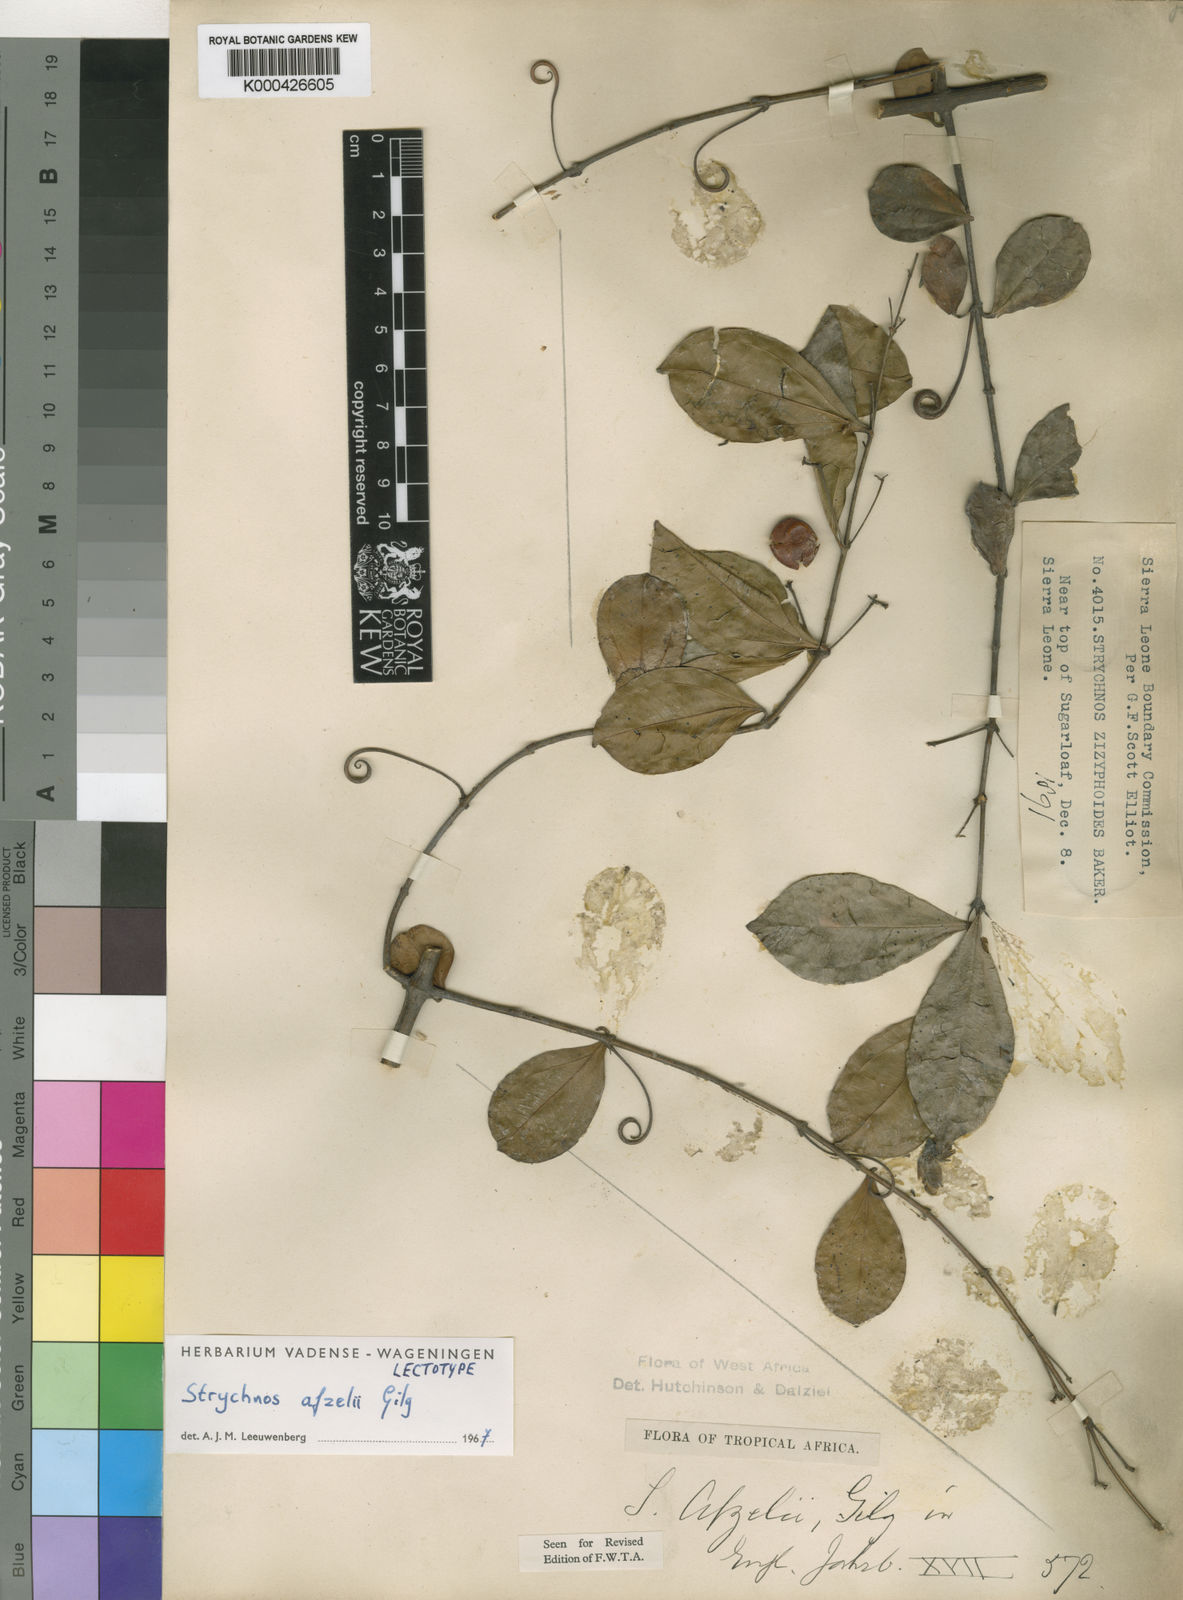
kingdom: Plantae
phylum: Tracheophyta
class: Magnoliopsida
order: Gentianales
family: Loganiaceae
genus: Strychnos
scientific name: Strychnos afzelii
